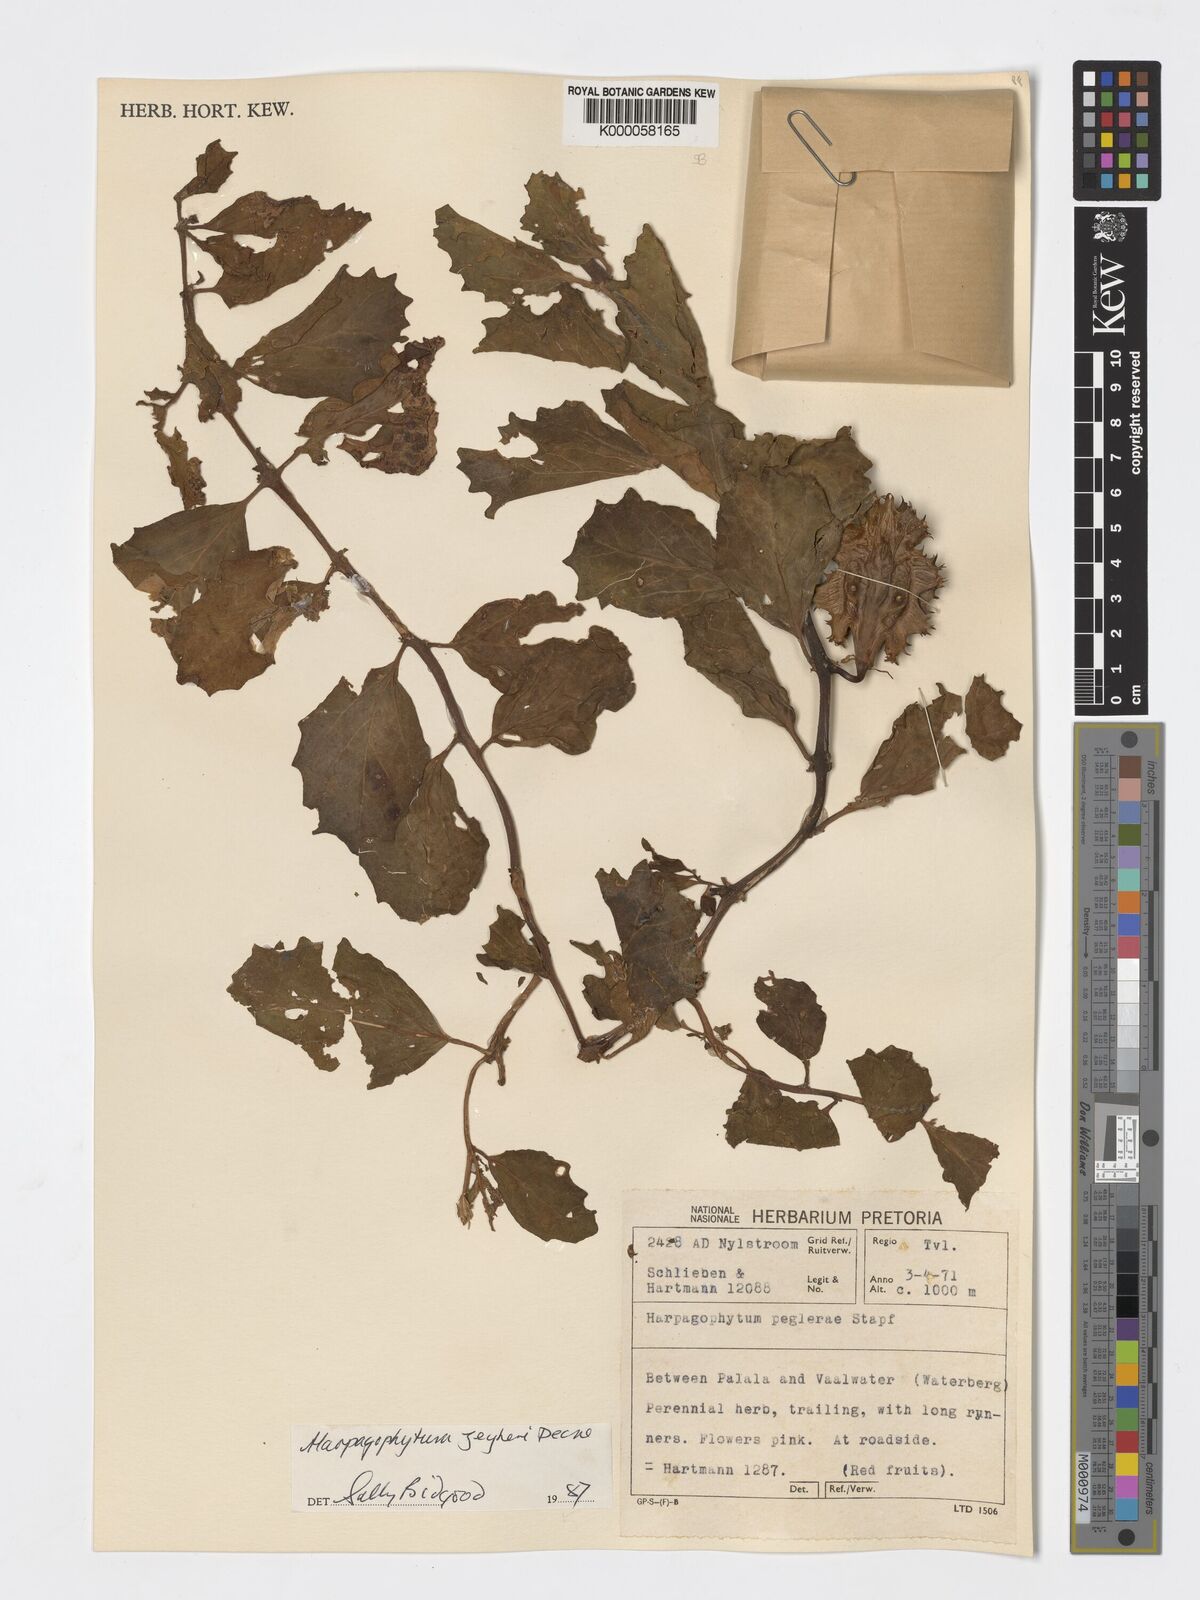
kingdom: Plantae
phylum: Tracheophyta
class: Magnoliopsida
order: Lamiales
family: Pedaliaceae
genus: Harpagophytum
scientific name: Harpagophytum zeyheri
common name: Grappleplant
